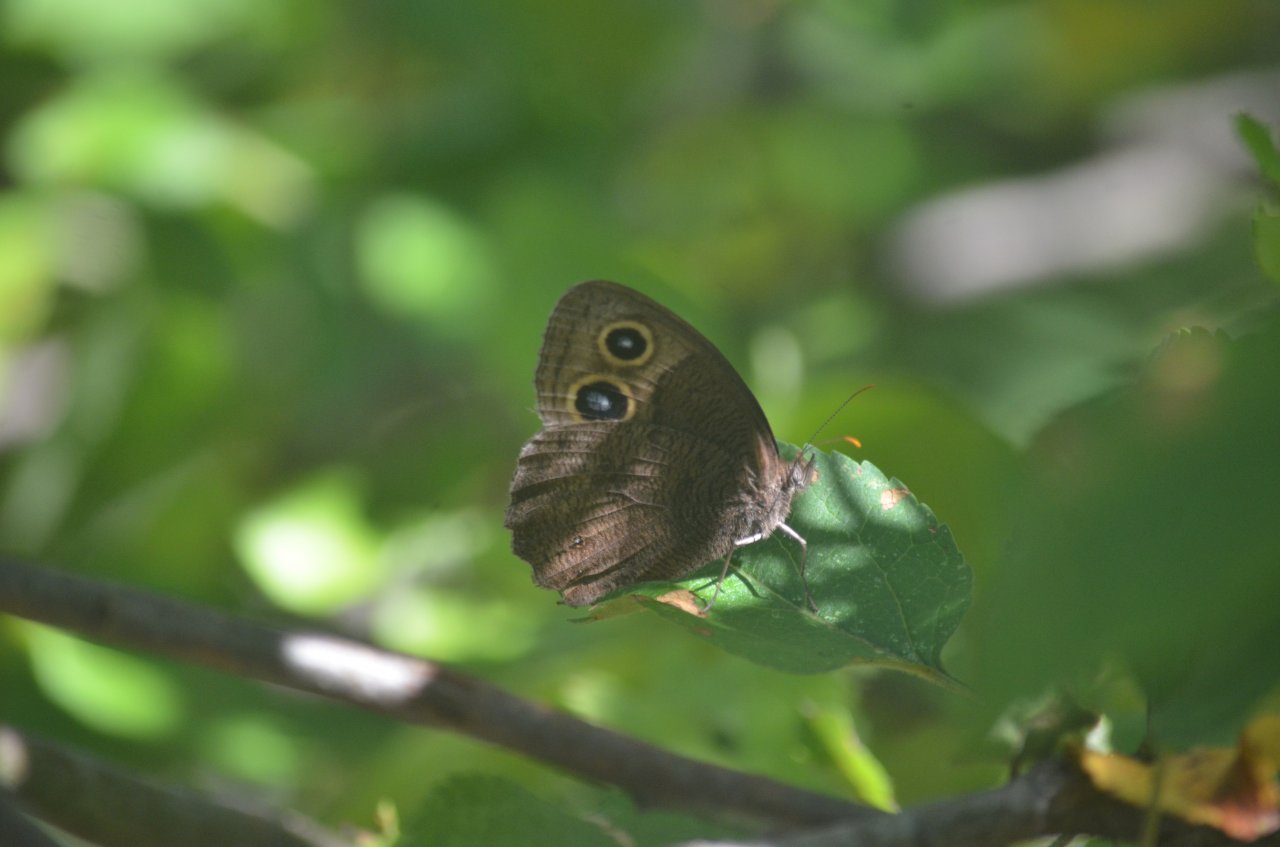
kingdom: Animalia
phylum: Arthropoda
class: Insecta
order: Lepidoptera
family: Nymphalidae
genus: Cercyonis
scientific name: Cercyonis pegala
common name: Common Wood-Nymph
